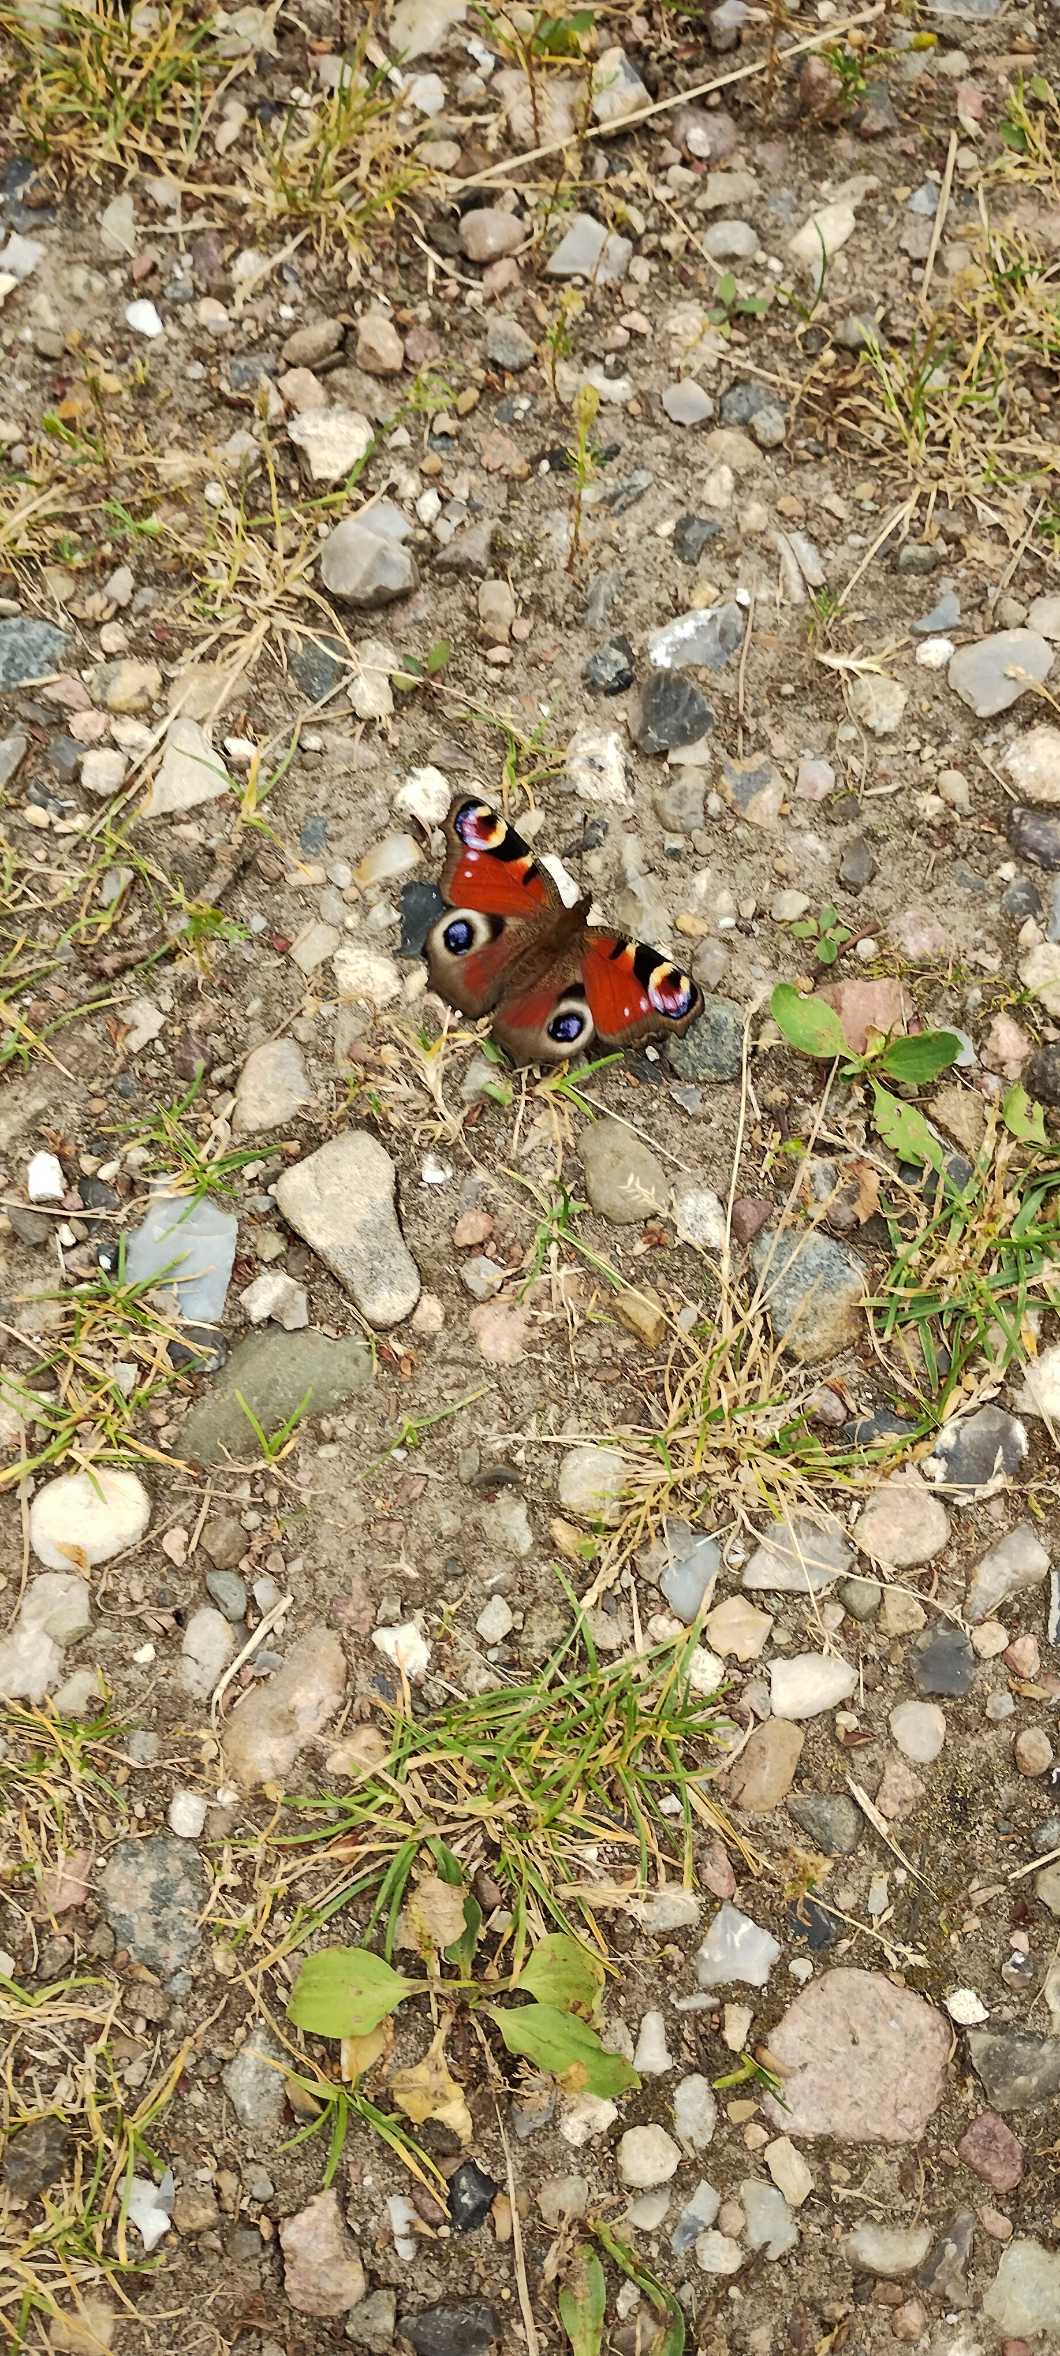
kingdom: Animalia
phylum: Arthropoda
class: Insecta
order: Lepidoptera
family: Nymphalidae
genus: Aglais
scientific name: Aglais io
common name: Dagpåfugleøje
